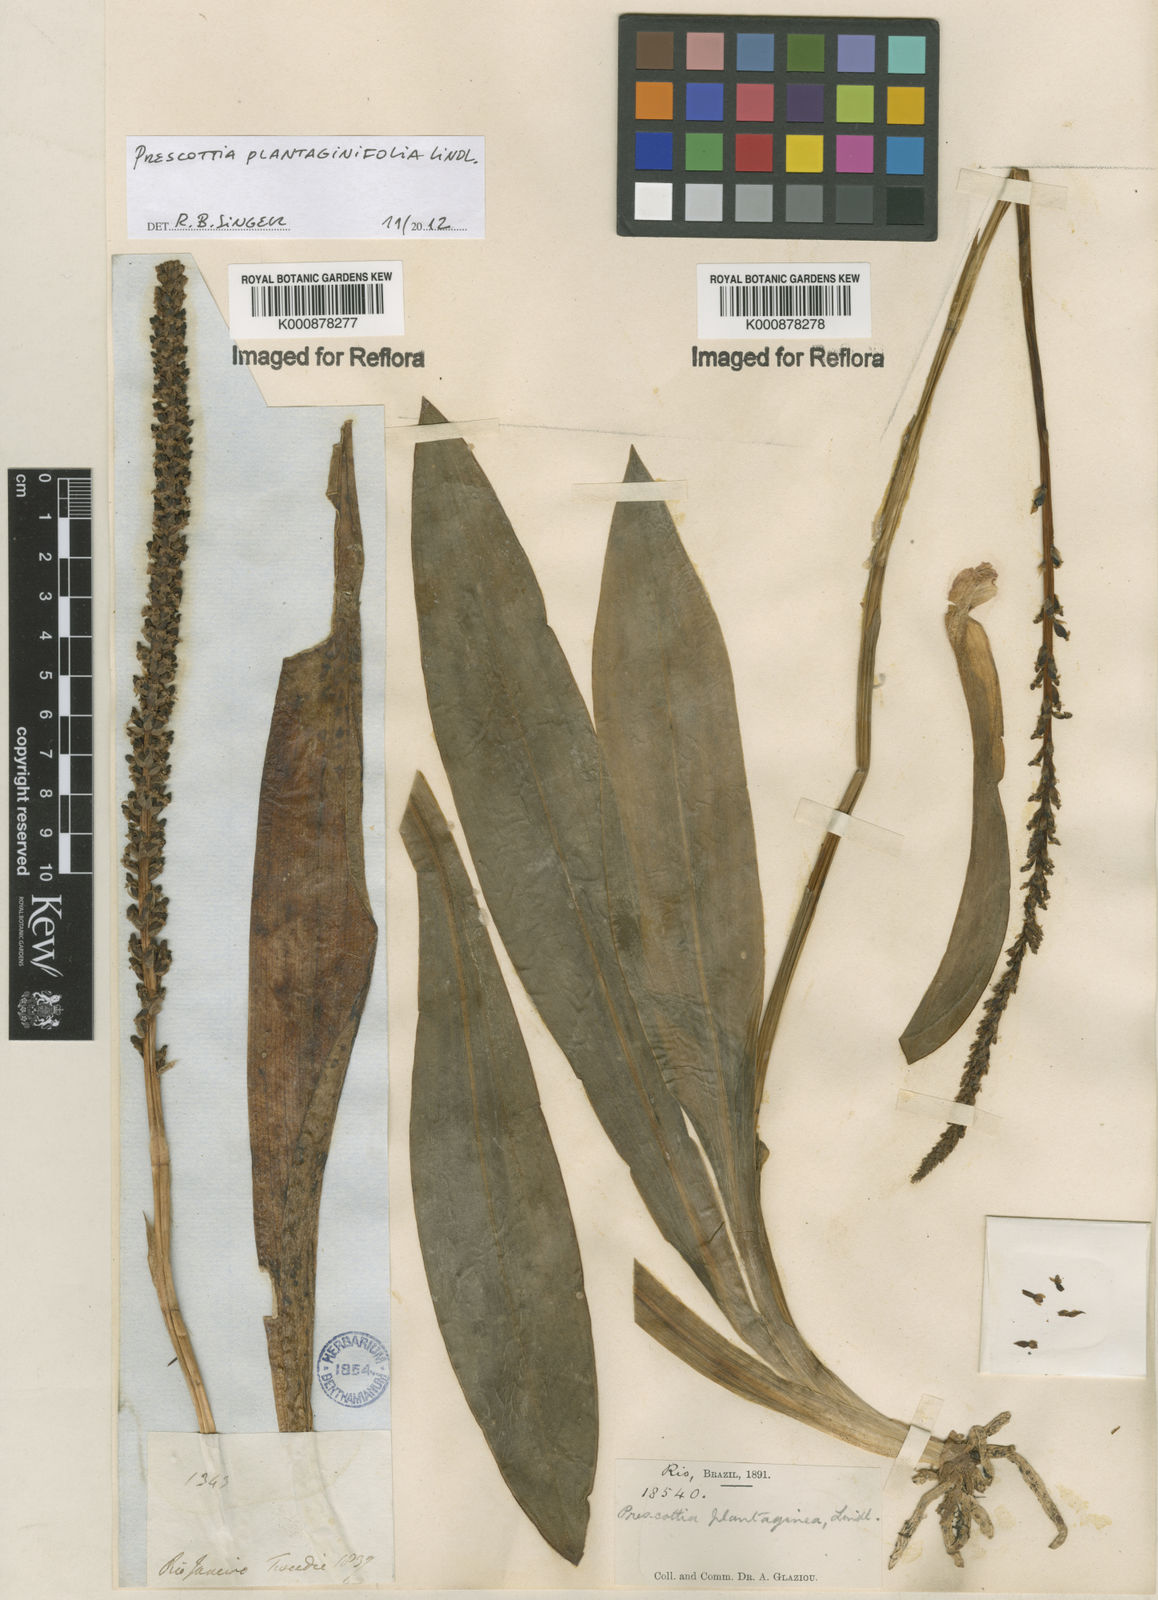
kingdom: Plantae
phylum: Tracheophyta
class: Liliopsida
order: Asparagales
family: Orchidaceae
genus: Prescottia
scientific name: Prescottia plantaginifolia
